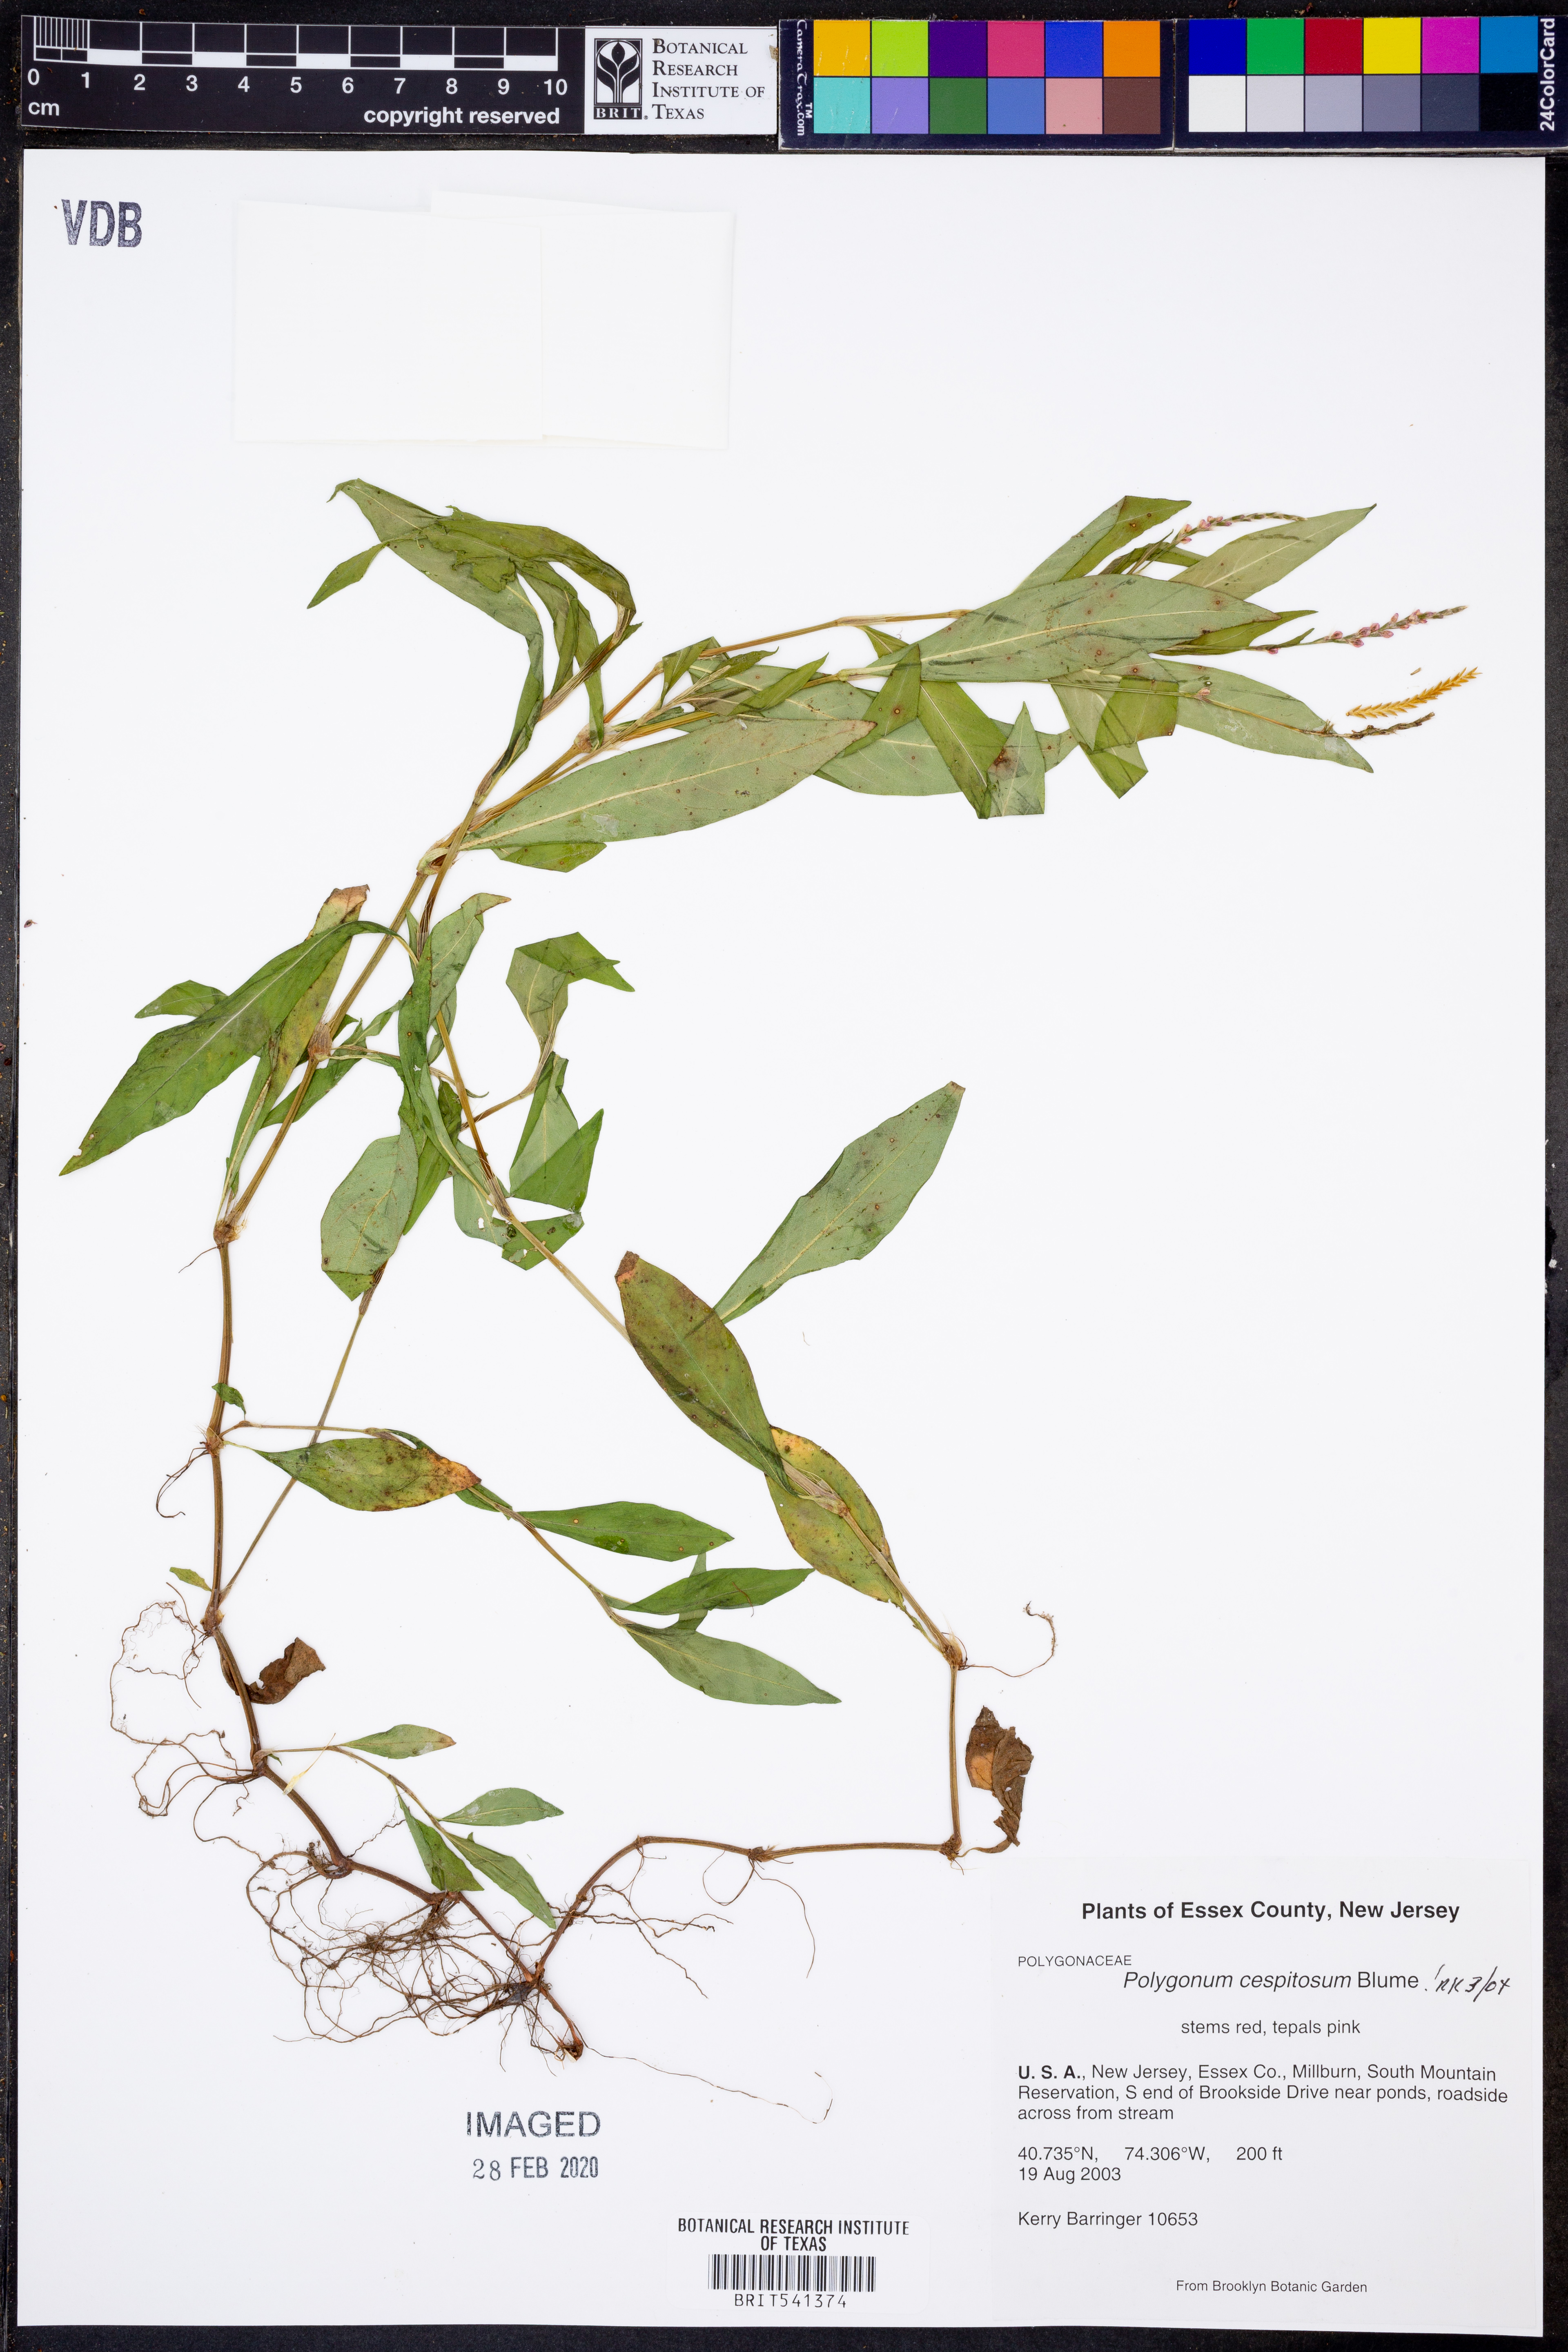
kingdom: Plantae
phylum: Tracheophyta
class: Magnoliopsida
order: Caryophyllales
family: Polygonaceae
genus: Persicaria
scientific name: Persicaria posumbu
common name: Oriental lady's thumb
